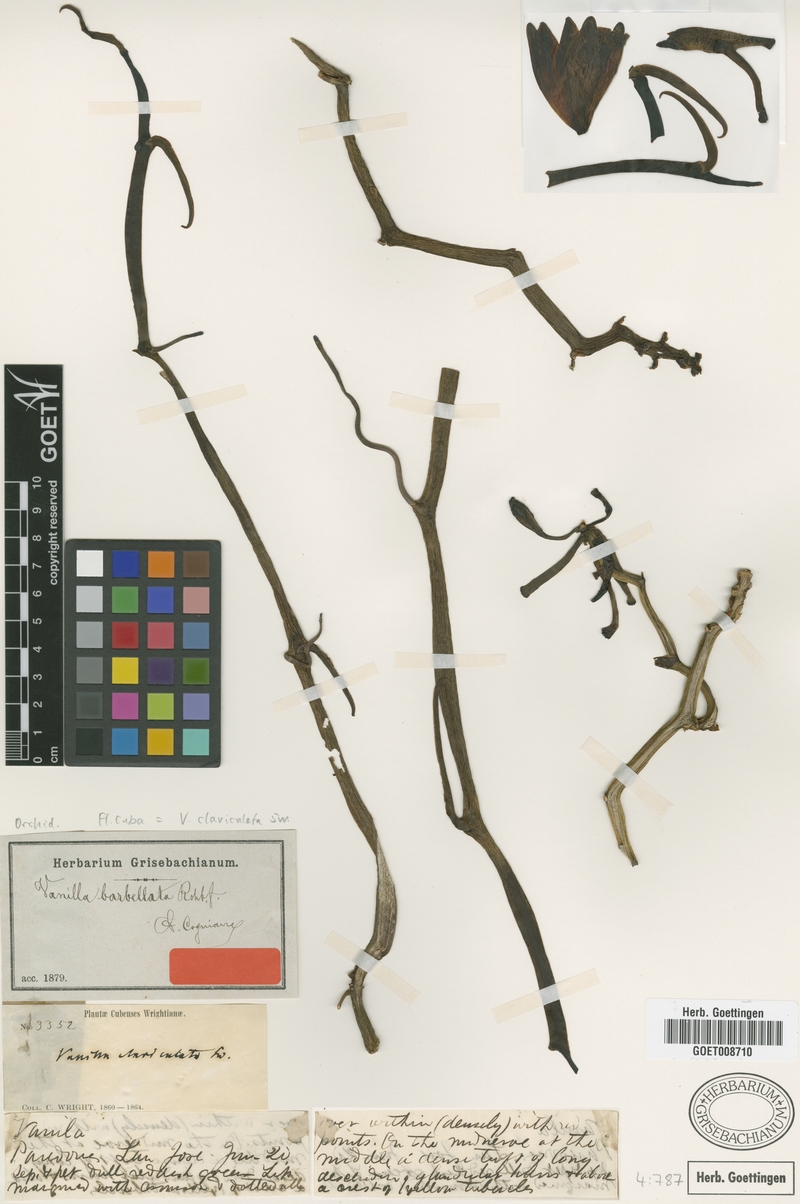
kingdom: Plantae
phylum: Tracheophyta
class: Liliopsida
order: Asparagales
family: Orchidaceae
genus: Vanilla
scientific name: Vanilla claviculata
